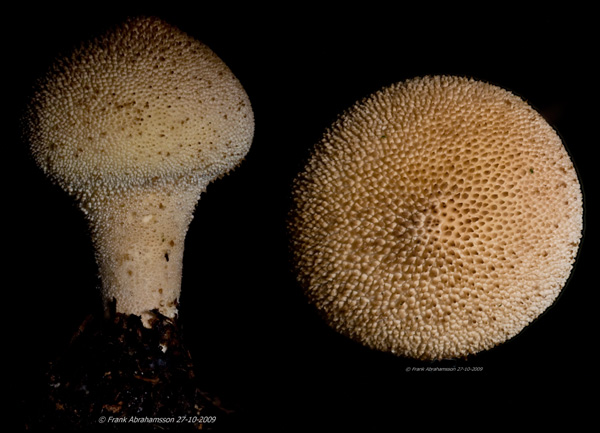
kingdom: Fungi
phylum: Basidiomycota
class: Agaricomycetes
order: Agaricales
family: Lycoperdaceae
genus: Lycoperdon
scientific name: Lycoperdon perlatum
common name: krystal-støvbold
